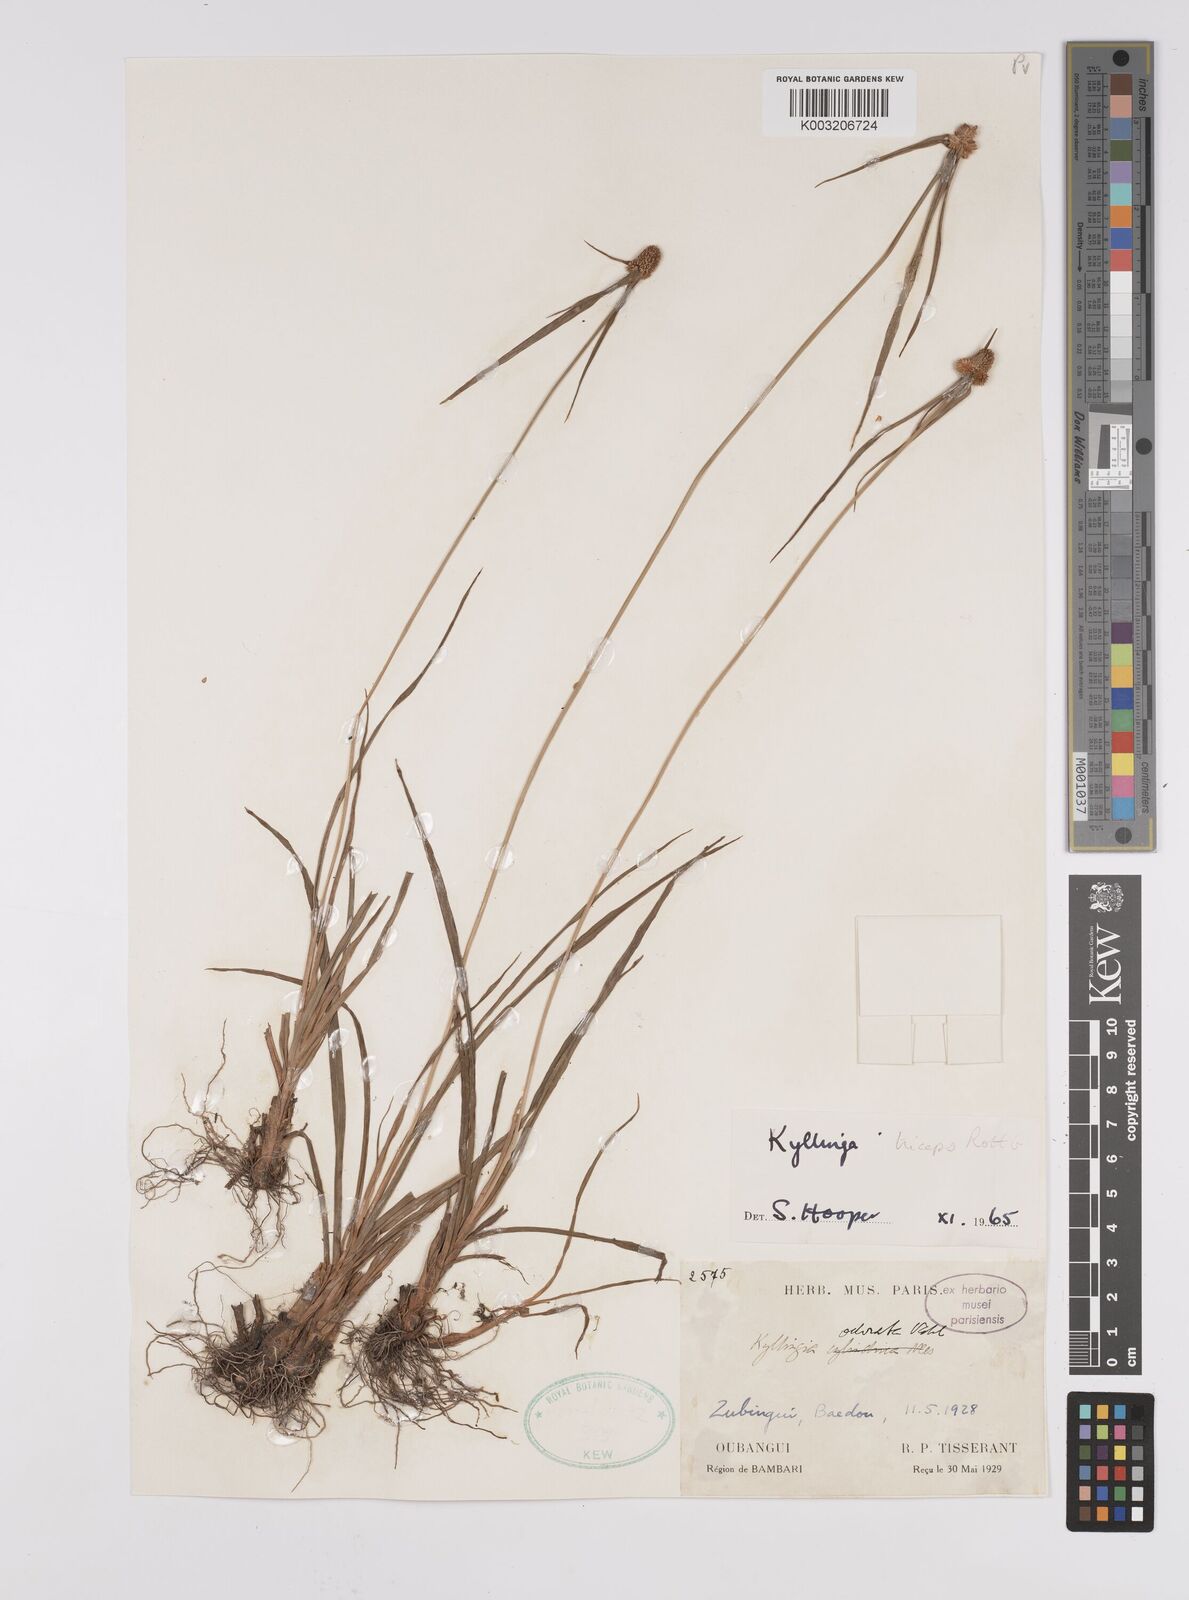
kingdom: Plantae
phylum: Tracheophyta
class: Liliopsida
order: Poales
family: Cyperaceae
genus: Cyperus
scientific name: Cyperus
